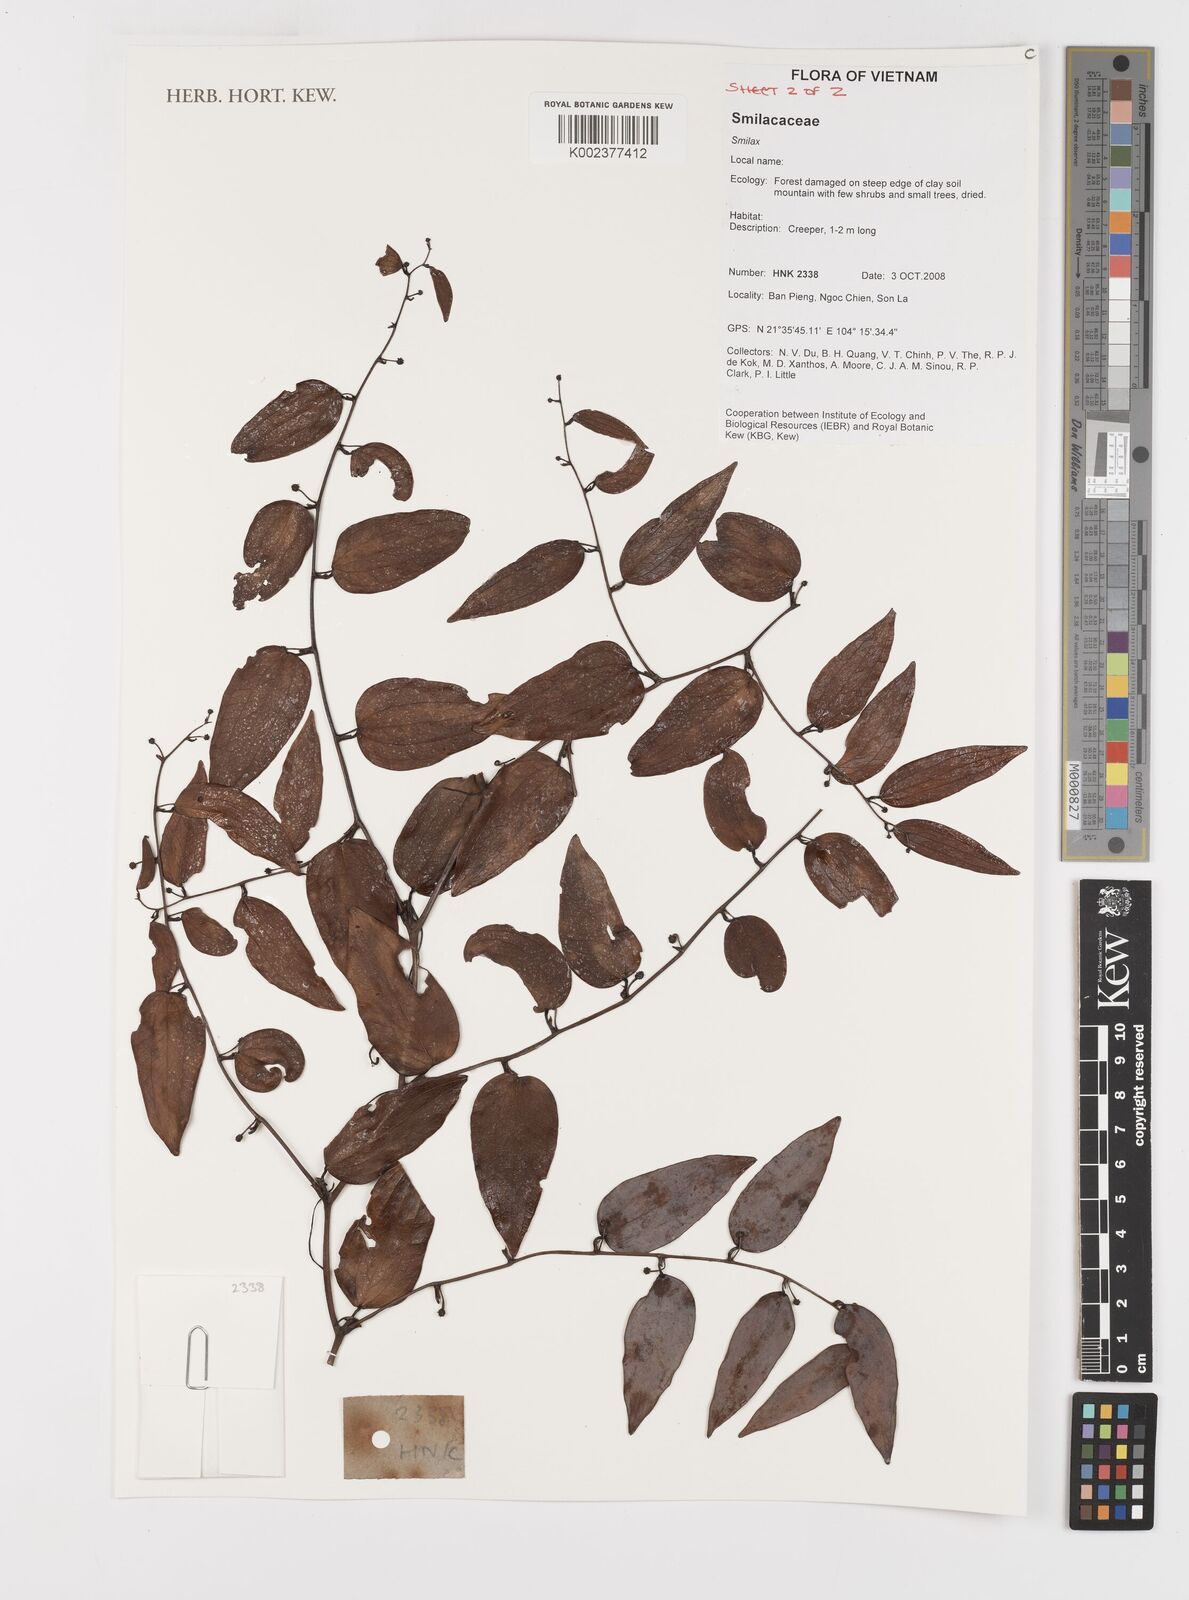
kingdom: Plantae
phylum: Tracheophyta
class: Liliopsida
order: Liliales
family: Smilacaceae
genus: Smilax
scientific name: Smilax
